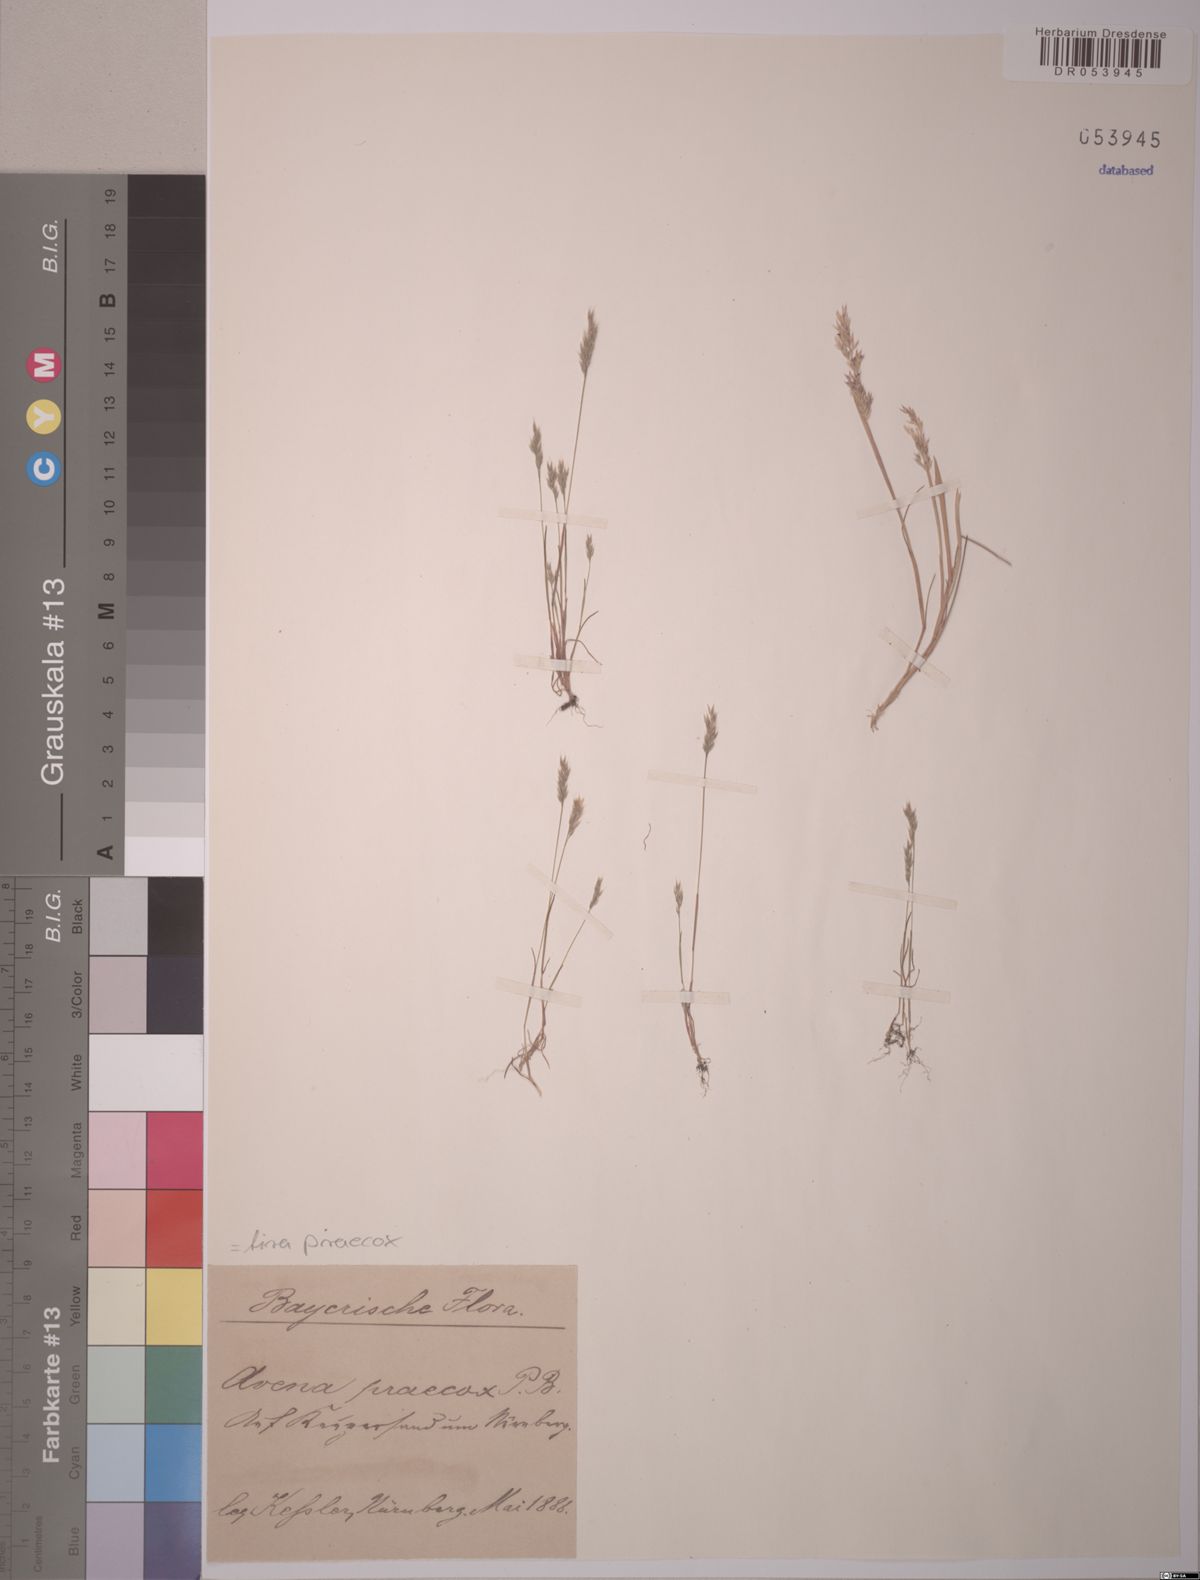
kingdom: Plantae
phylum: Tracheophyta
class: Liliopsida
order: Poales
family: Poaceae
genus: Aira
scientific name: Aira praecox
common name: Early hair-grass
